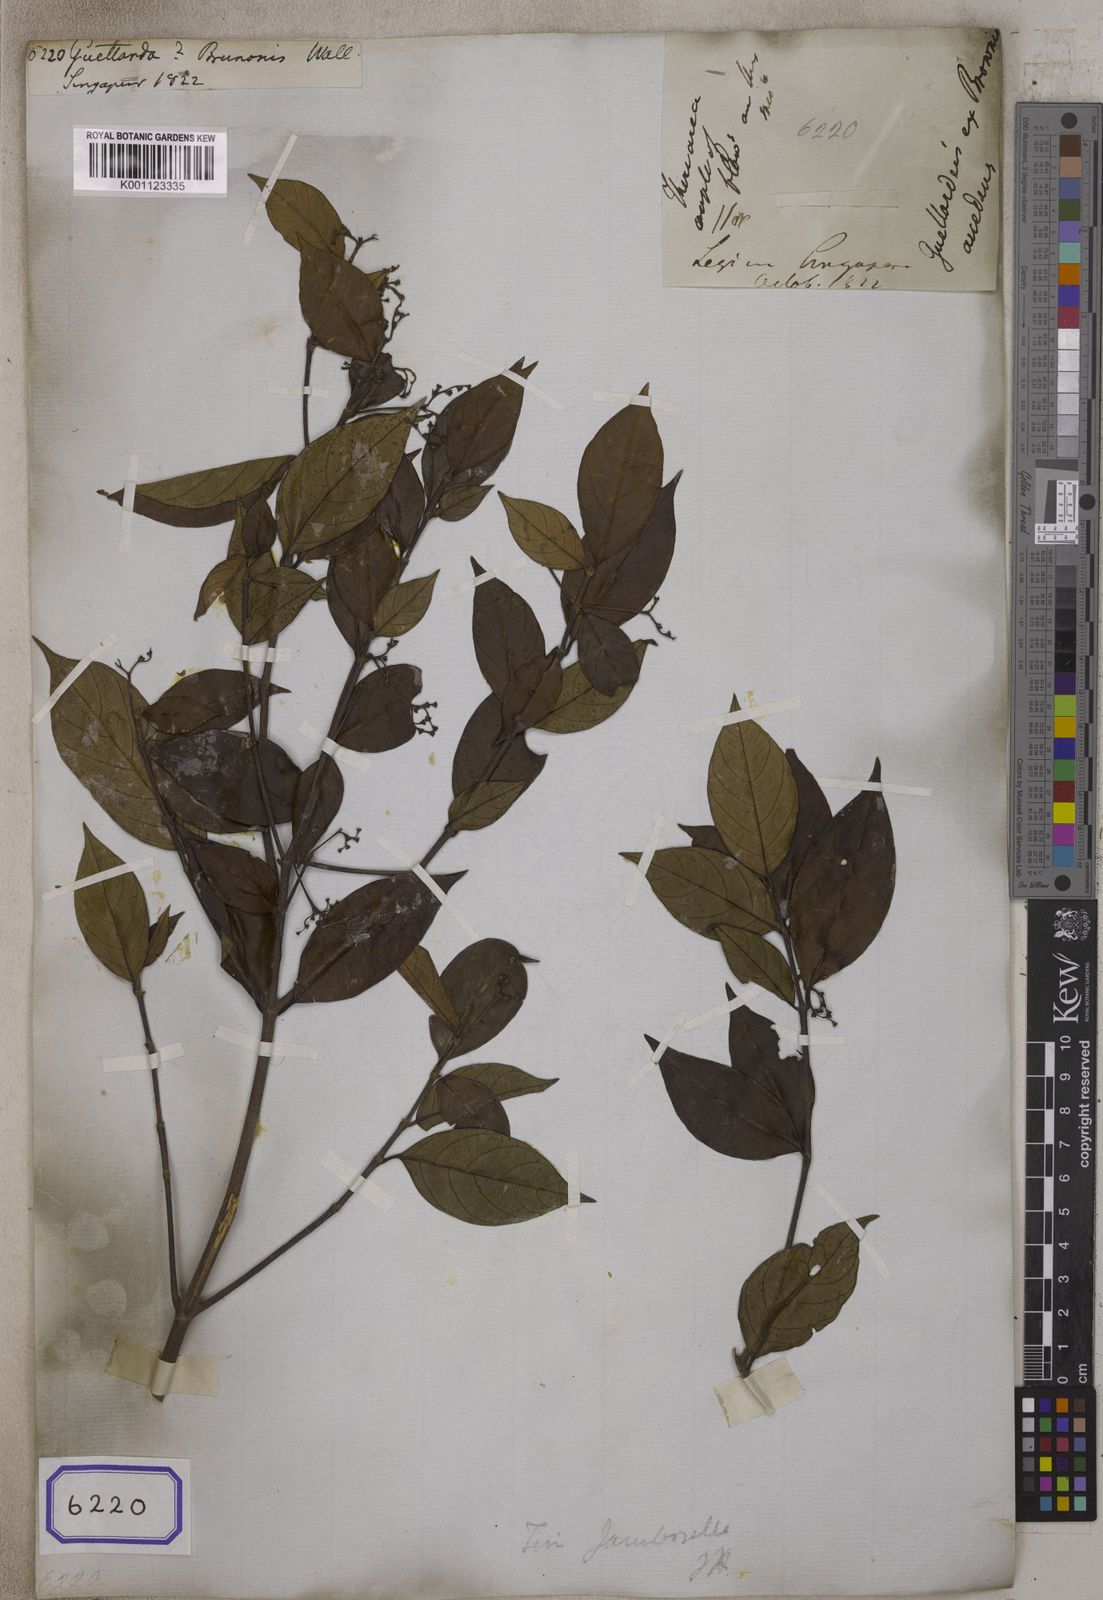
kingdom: Plantae
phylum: Tracheophyta
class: Magnoliopsida
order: Gentianales
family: Rubiaceae
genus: Guettarda
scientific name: Guettarda
